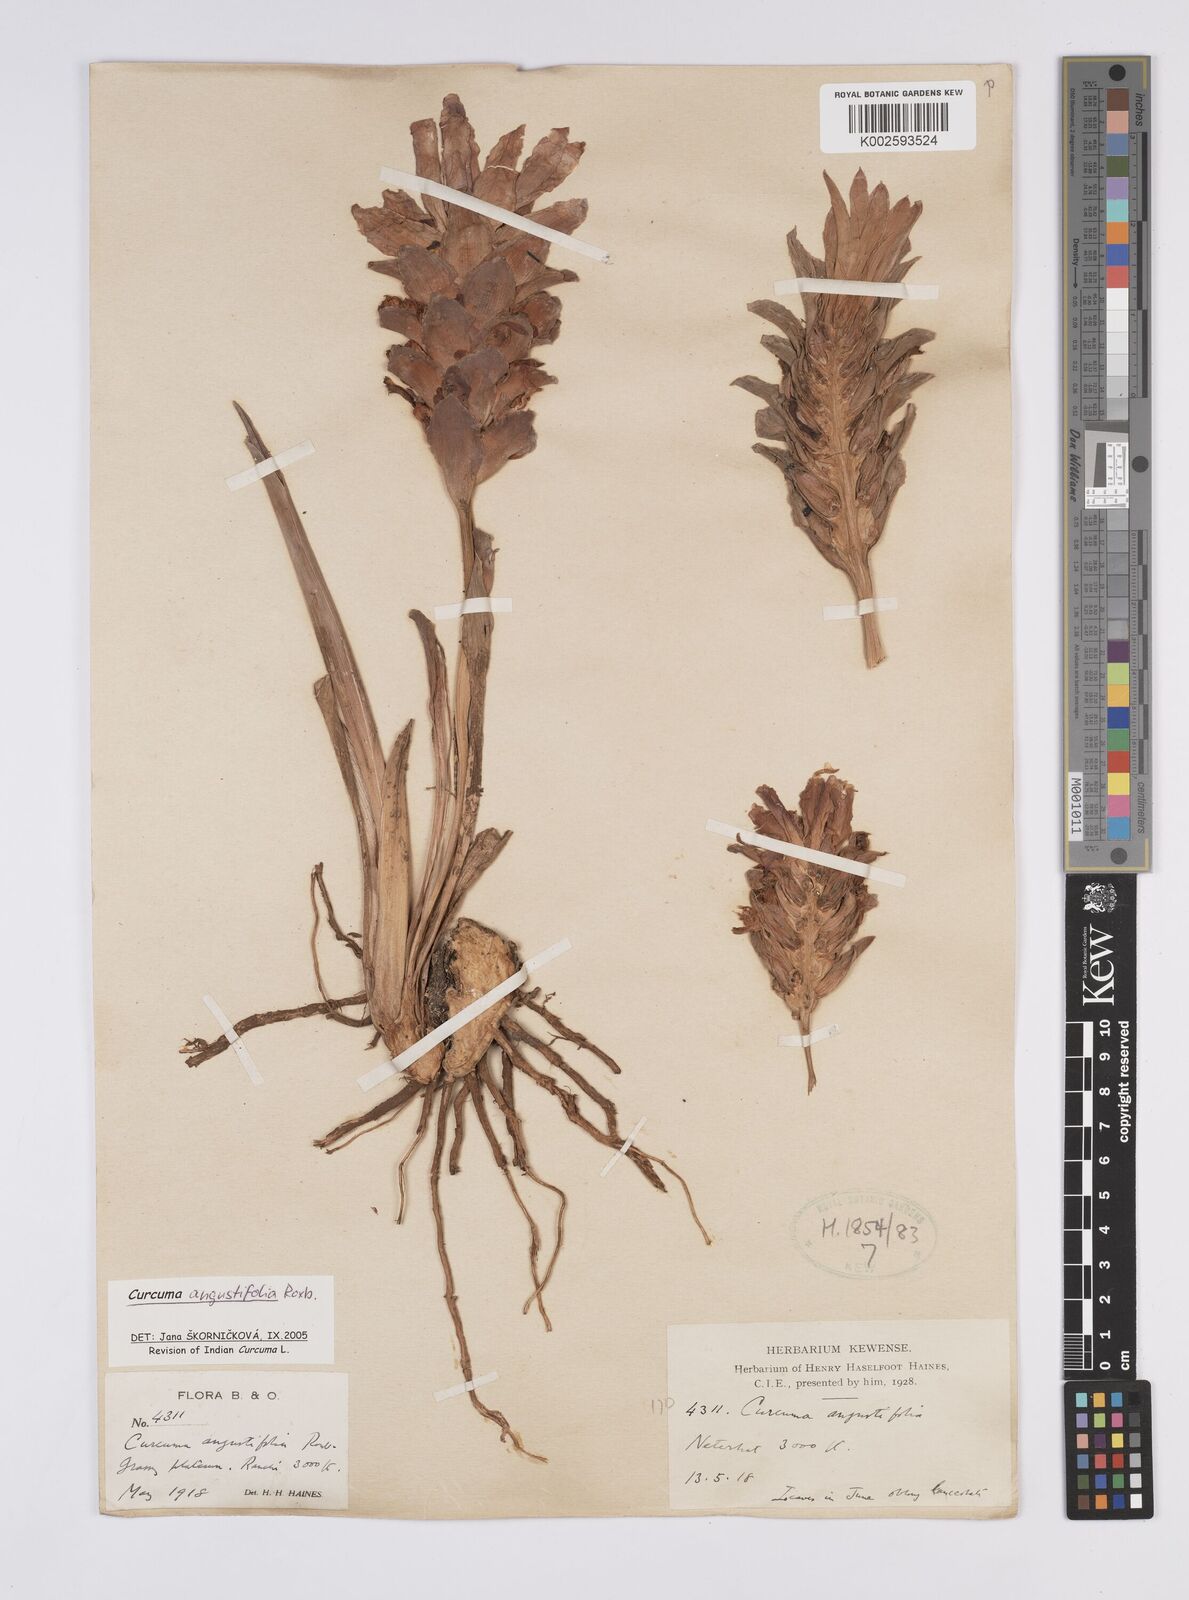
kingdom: Plantae
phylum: Tracheophyta
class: Liliopsida
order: Zingiberales
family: Zingiberaceae
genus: Curcuma
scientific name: Curcuma angustifolia
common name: East indian arrowroot
